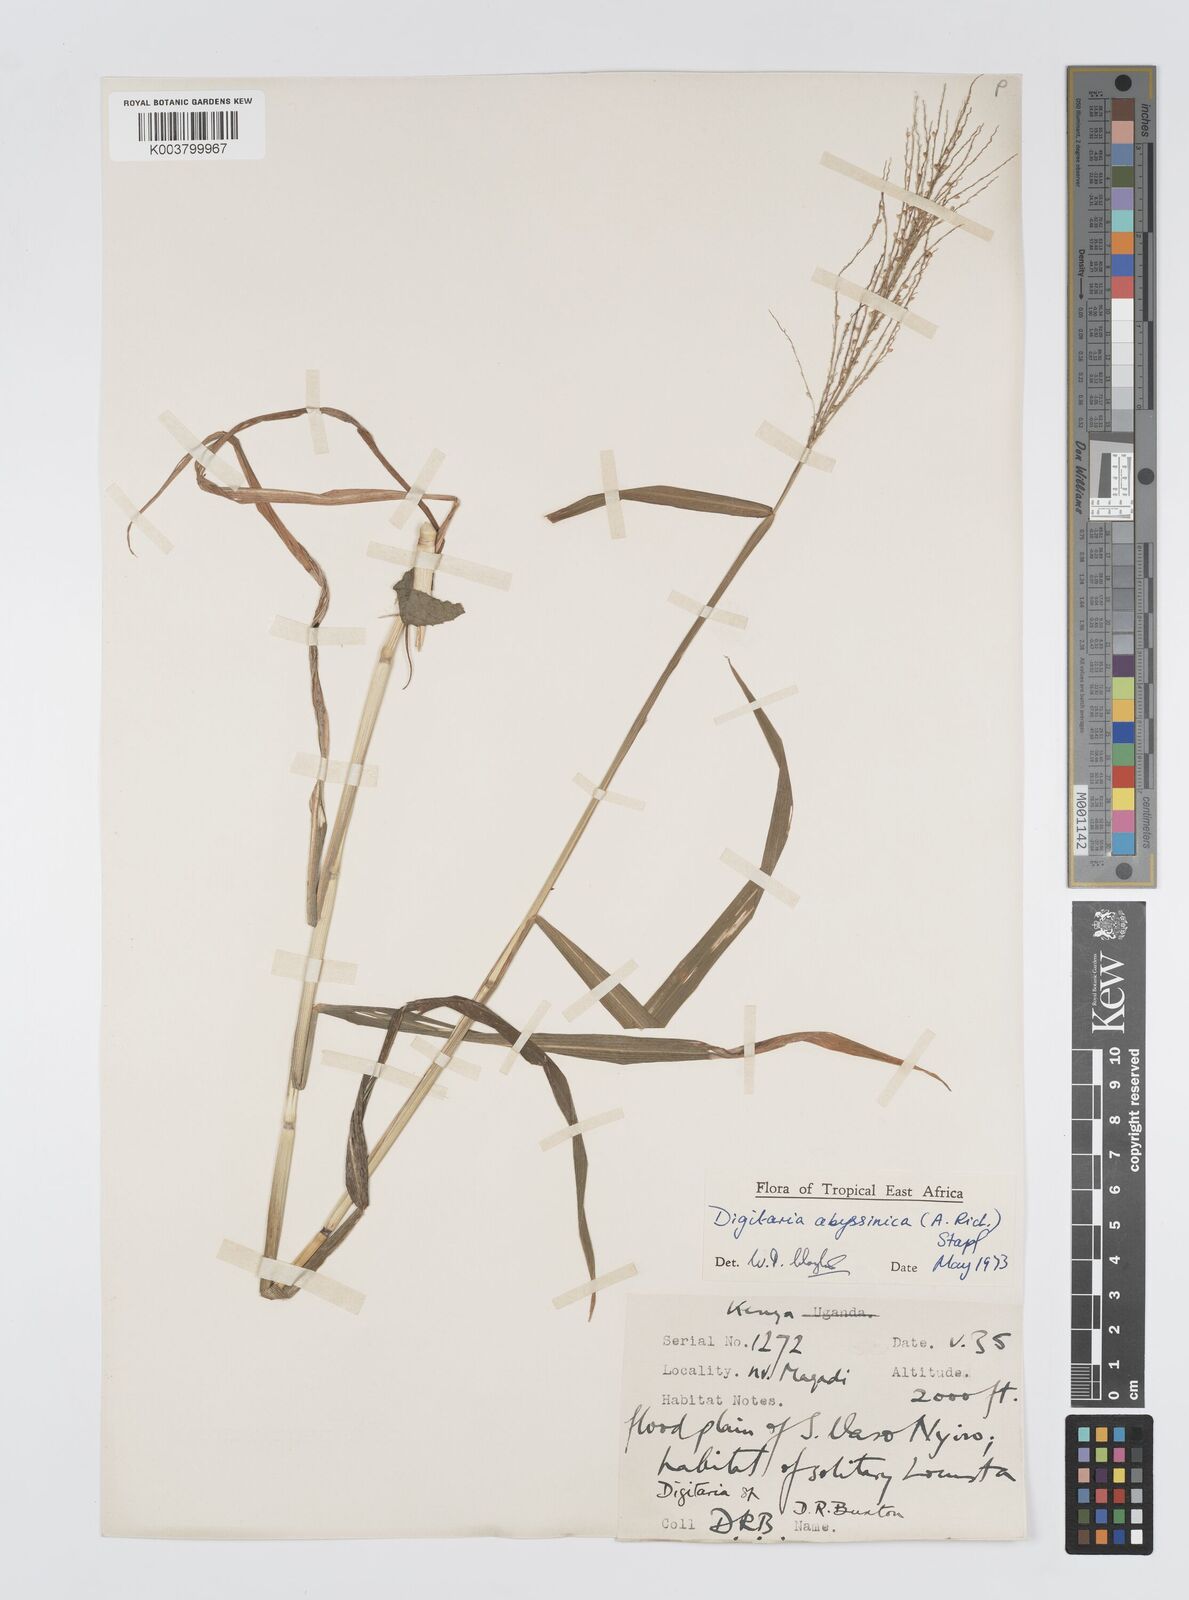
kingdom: Plantae
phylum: Tracheophyta
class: Liliopsida
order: Poales
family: Poaceae
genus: Digitaria
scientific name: Digitaria abyssinica
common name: African couchgrass
